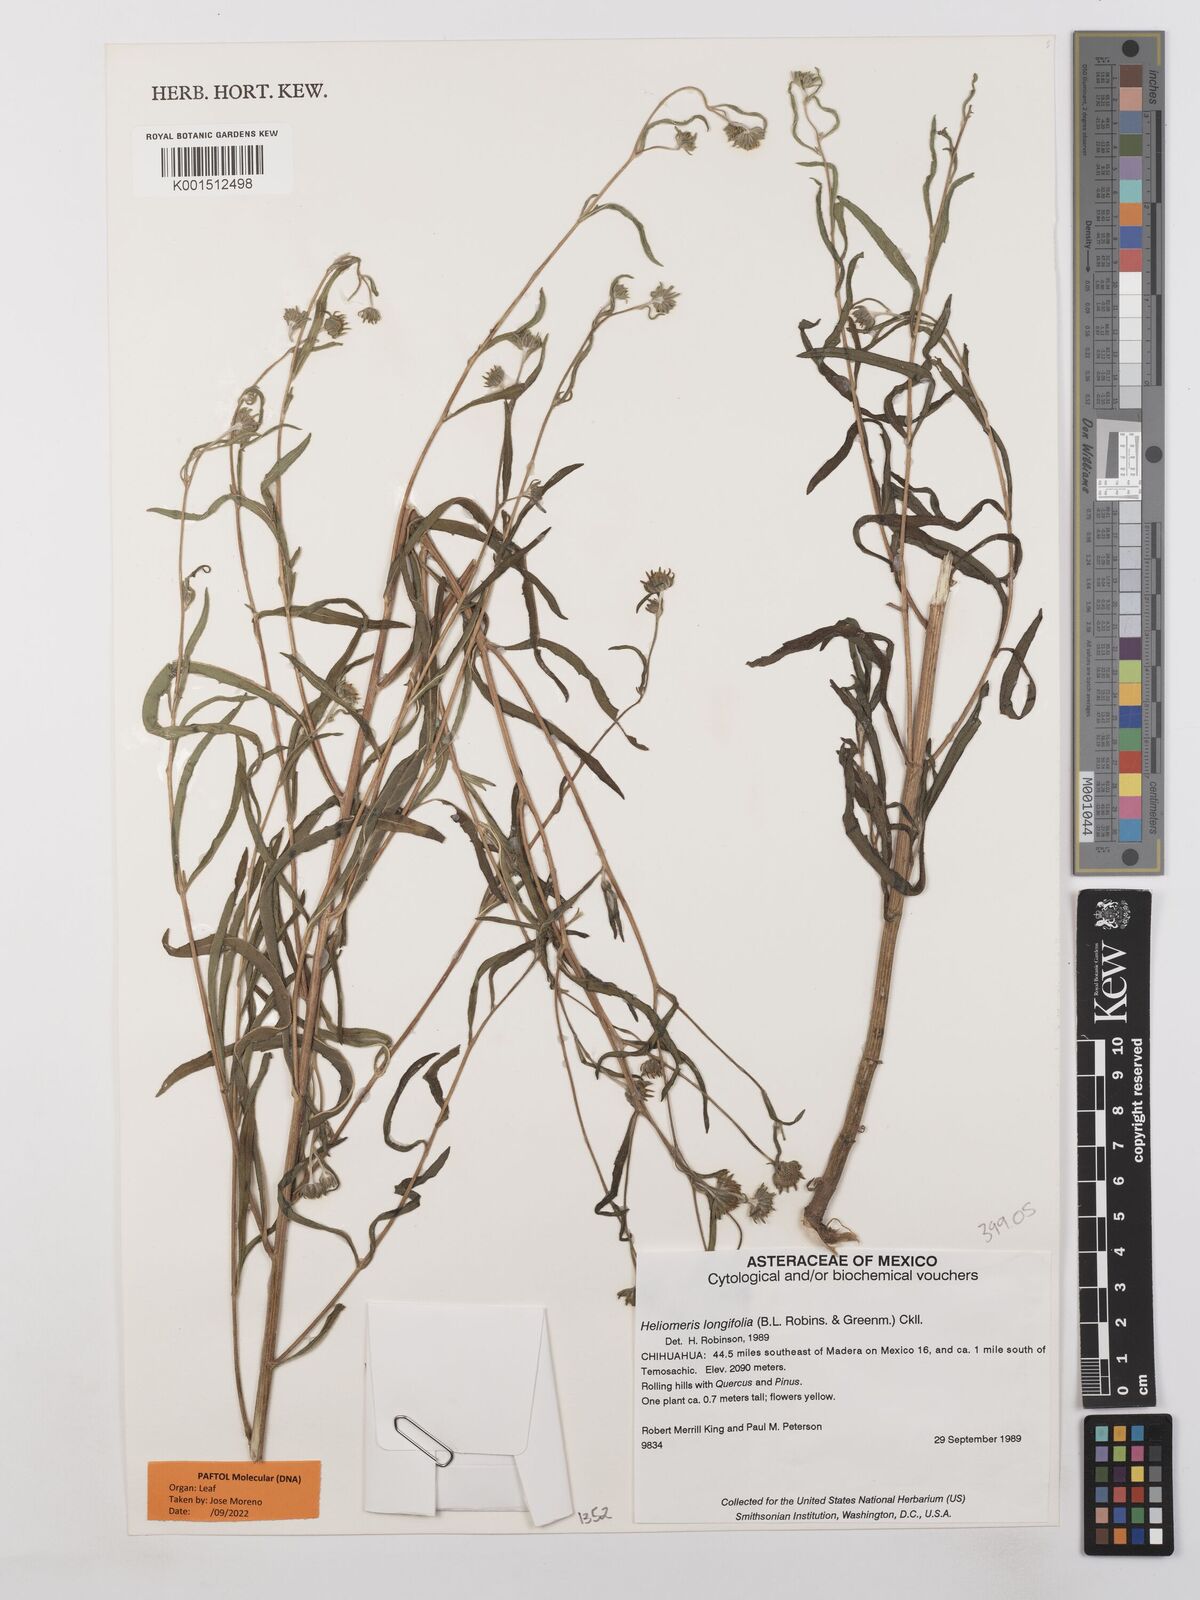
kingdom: Plantae
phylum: Tracheophyta
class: Magnoliopsida
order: Asterales
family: Asteraceae
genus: Heliomeris
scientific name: Heliomeris longifolia
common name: Longleaf false goldeneye
